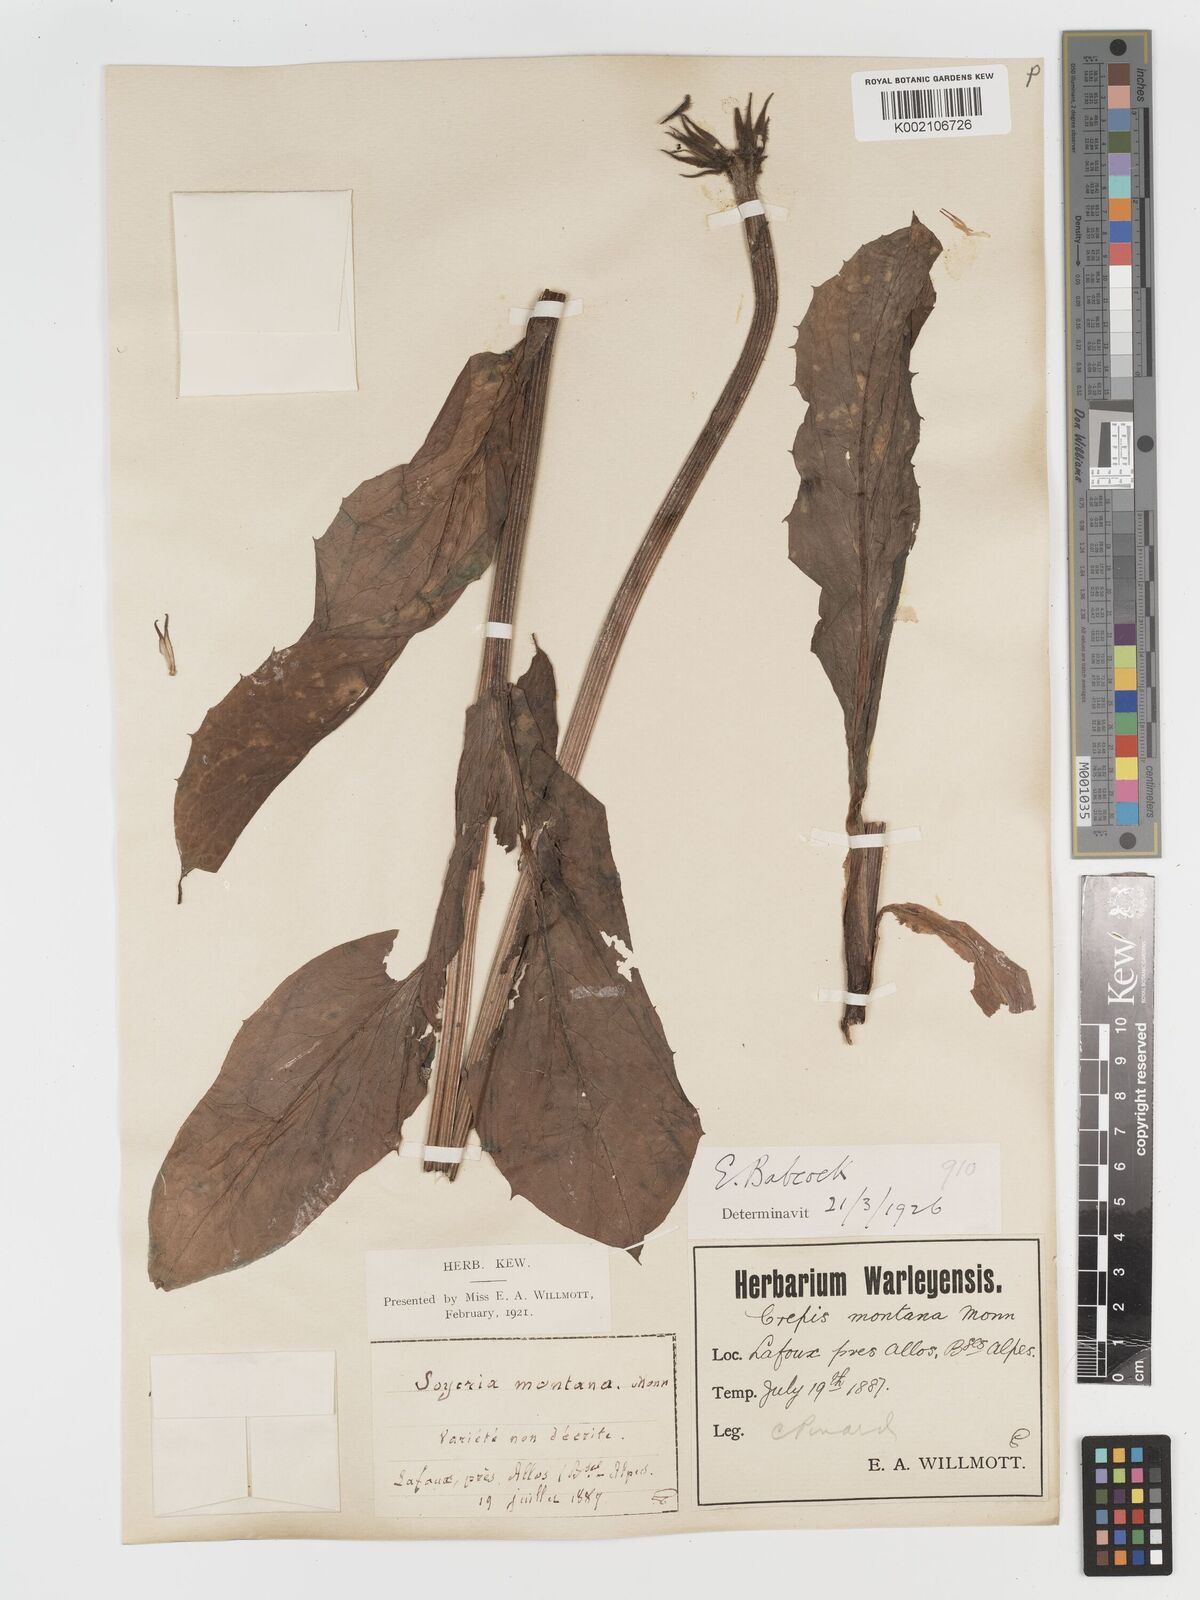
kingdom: Plantae
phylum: Tracheophyta
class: Magnoliopsida
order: Asterales
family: Asteraceae
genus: Crepis
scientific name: Crepis pontana
